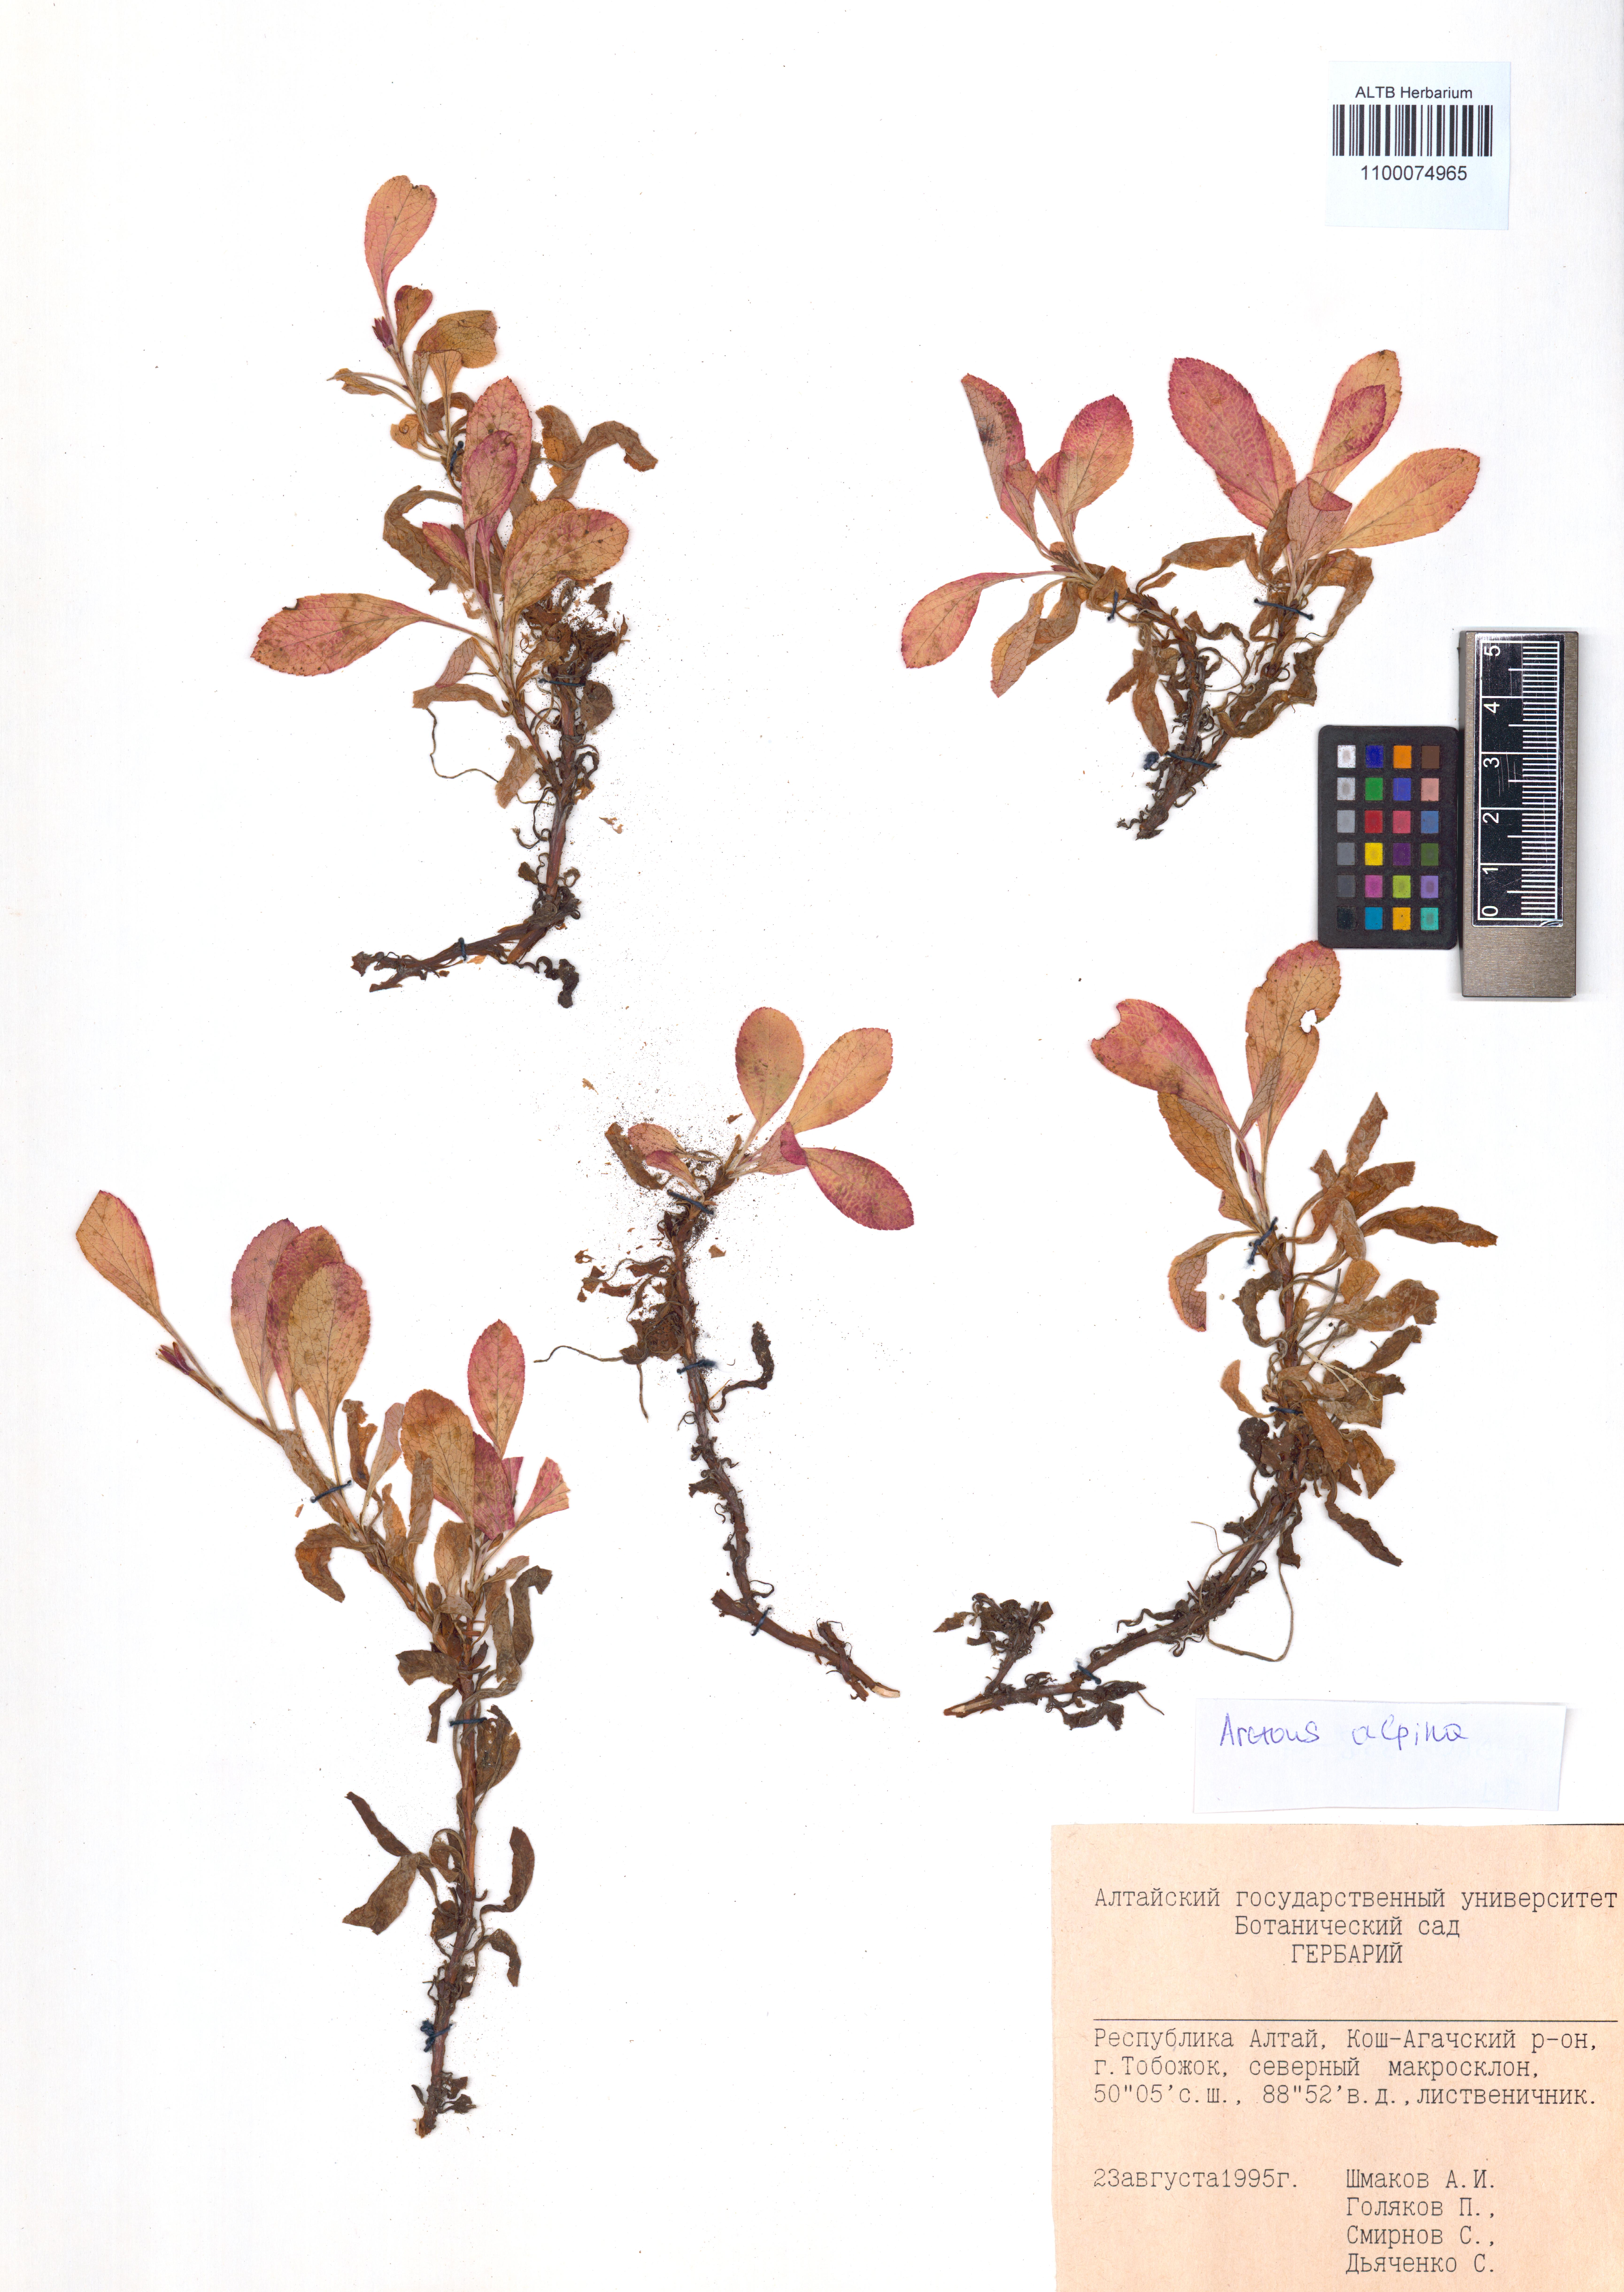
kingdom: Plantae
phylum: Tracheophyta
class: Magnoliopsida
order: Ericales
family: Ericaceae
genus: Arctostaphylos
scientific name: Arctostaphylos alpinus
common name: Alpine bearberry
